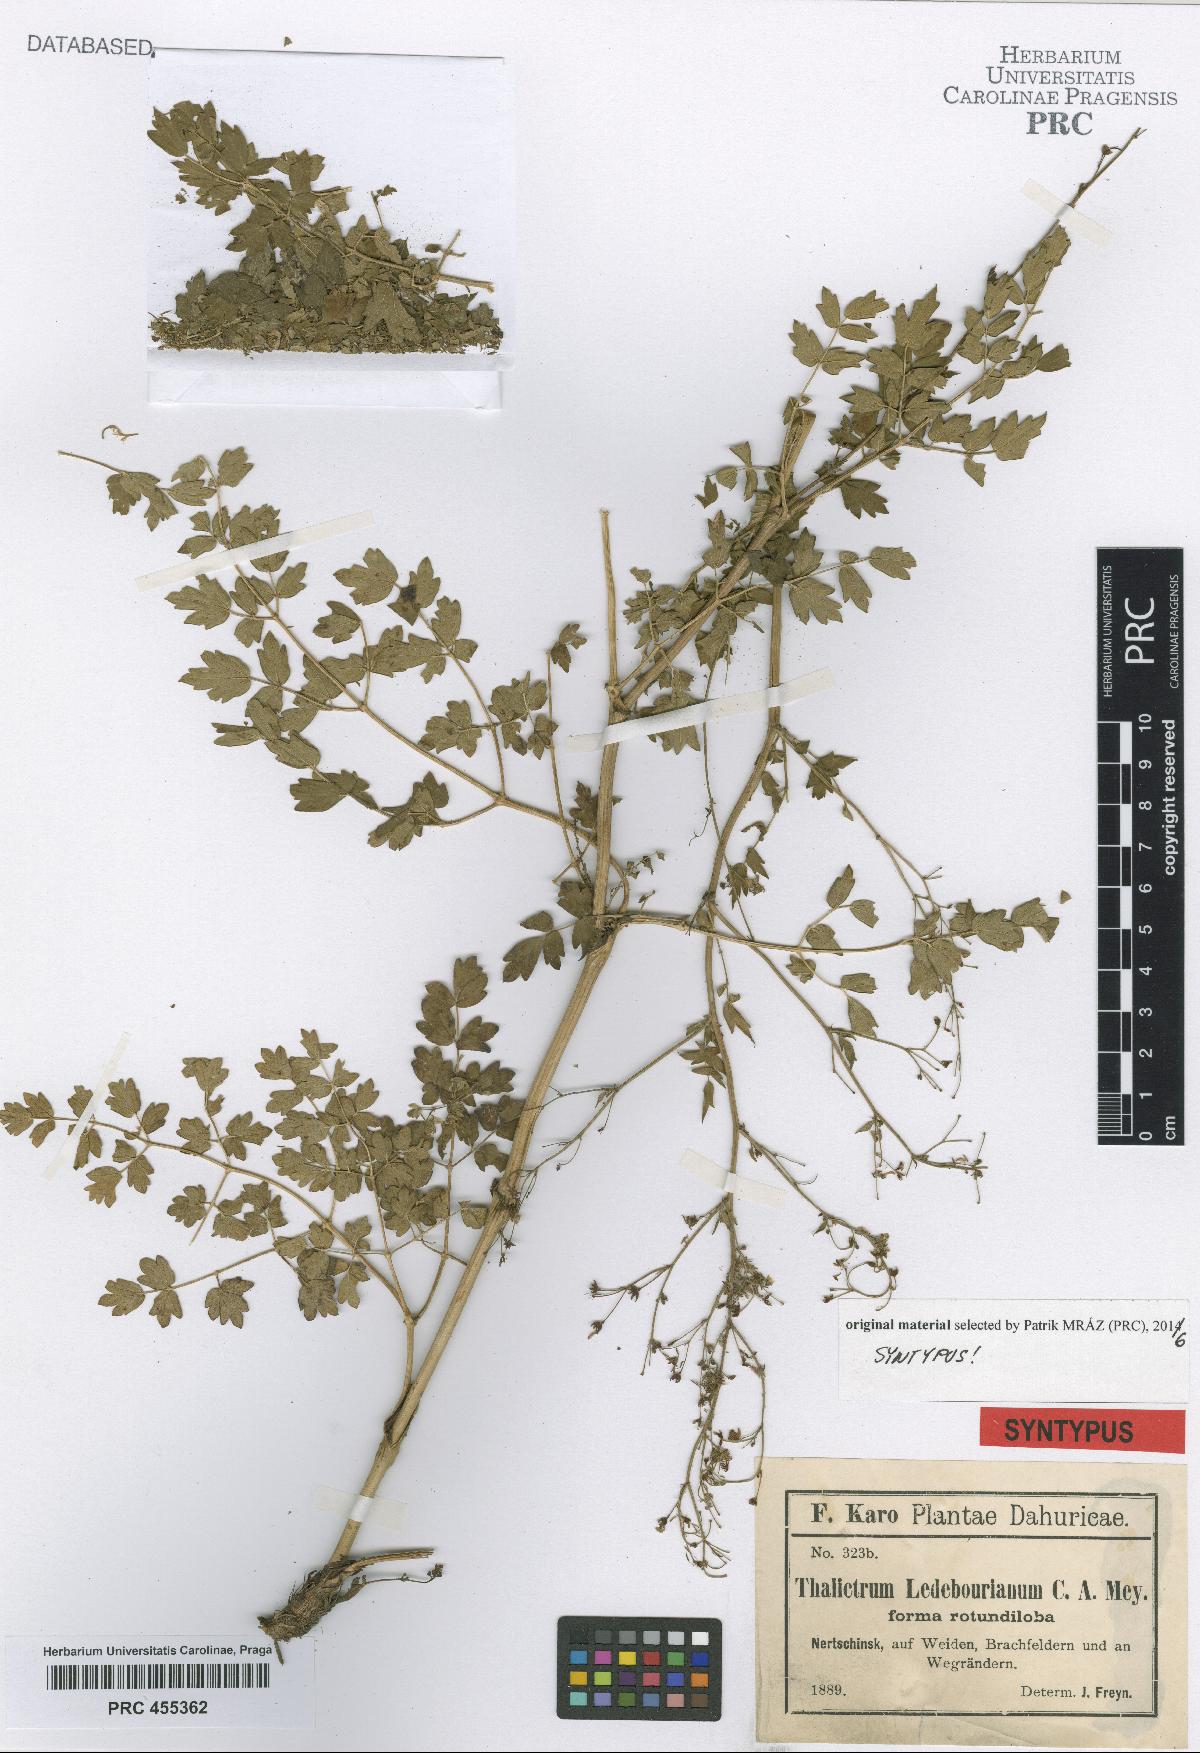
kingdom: Plantae
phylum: Tracheophyta
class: Magnoliopsida
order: Ranunculales
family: Ranunculaceae
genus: Thalictrum
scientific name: Thalictrum squarrosum
